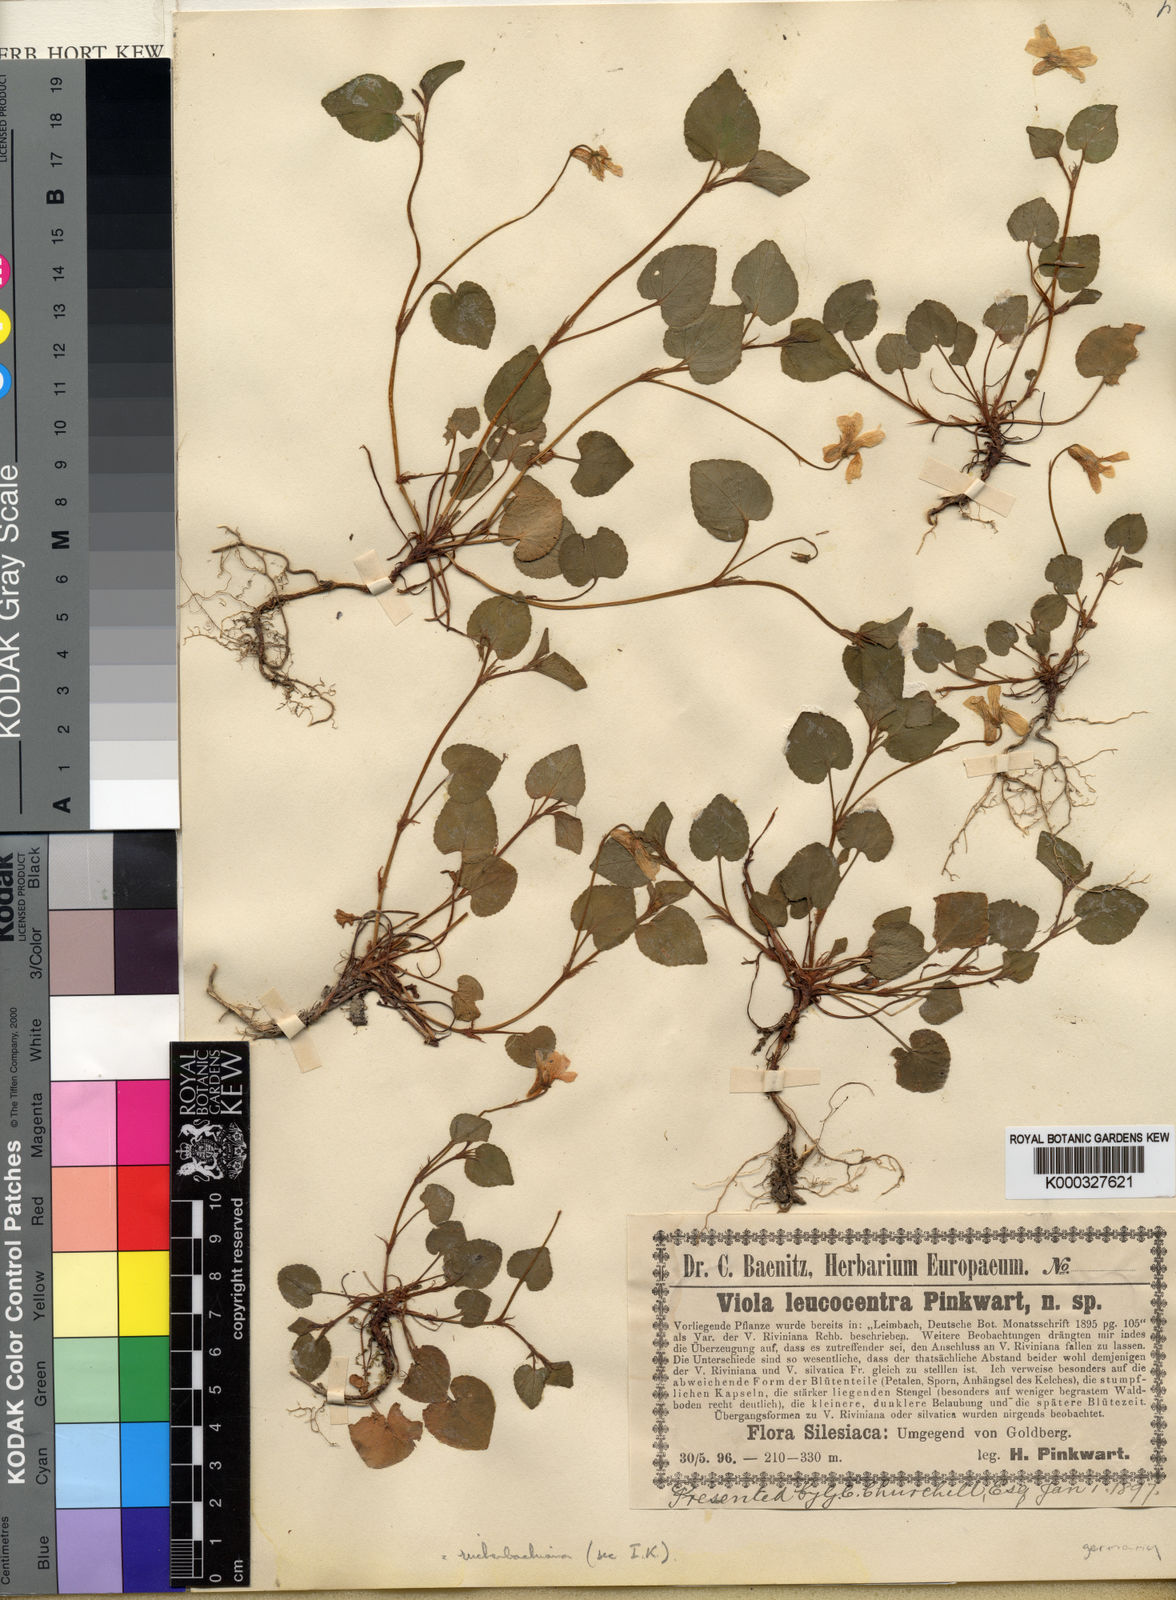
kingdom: Plantae
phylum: Tracheophyta
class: Magnoliopsida
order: Malpighiales
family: Violaceae
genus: Viola
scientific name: Viola reichenbachiana
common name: Early dog-violet
